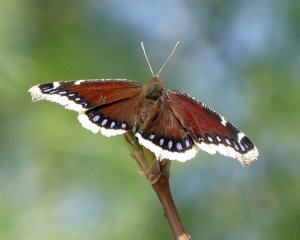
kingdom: Animalia
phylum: Arthropoda
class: Insecta
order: Lepidoptera
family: Nymphalidae
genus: Nymphalis
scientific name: Nymphalis antiopa
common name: Mourning Cloak
